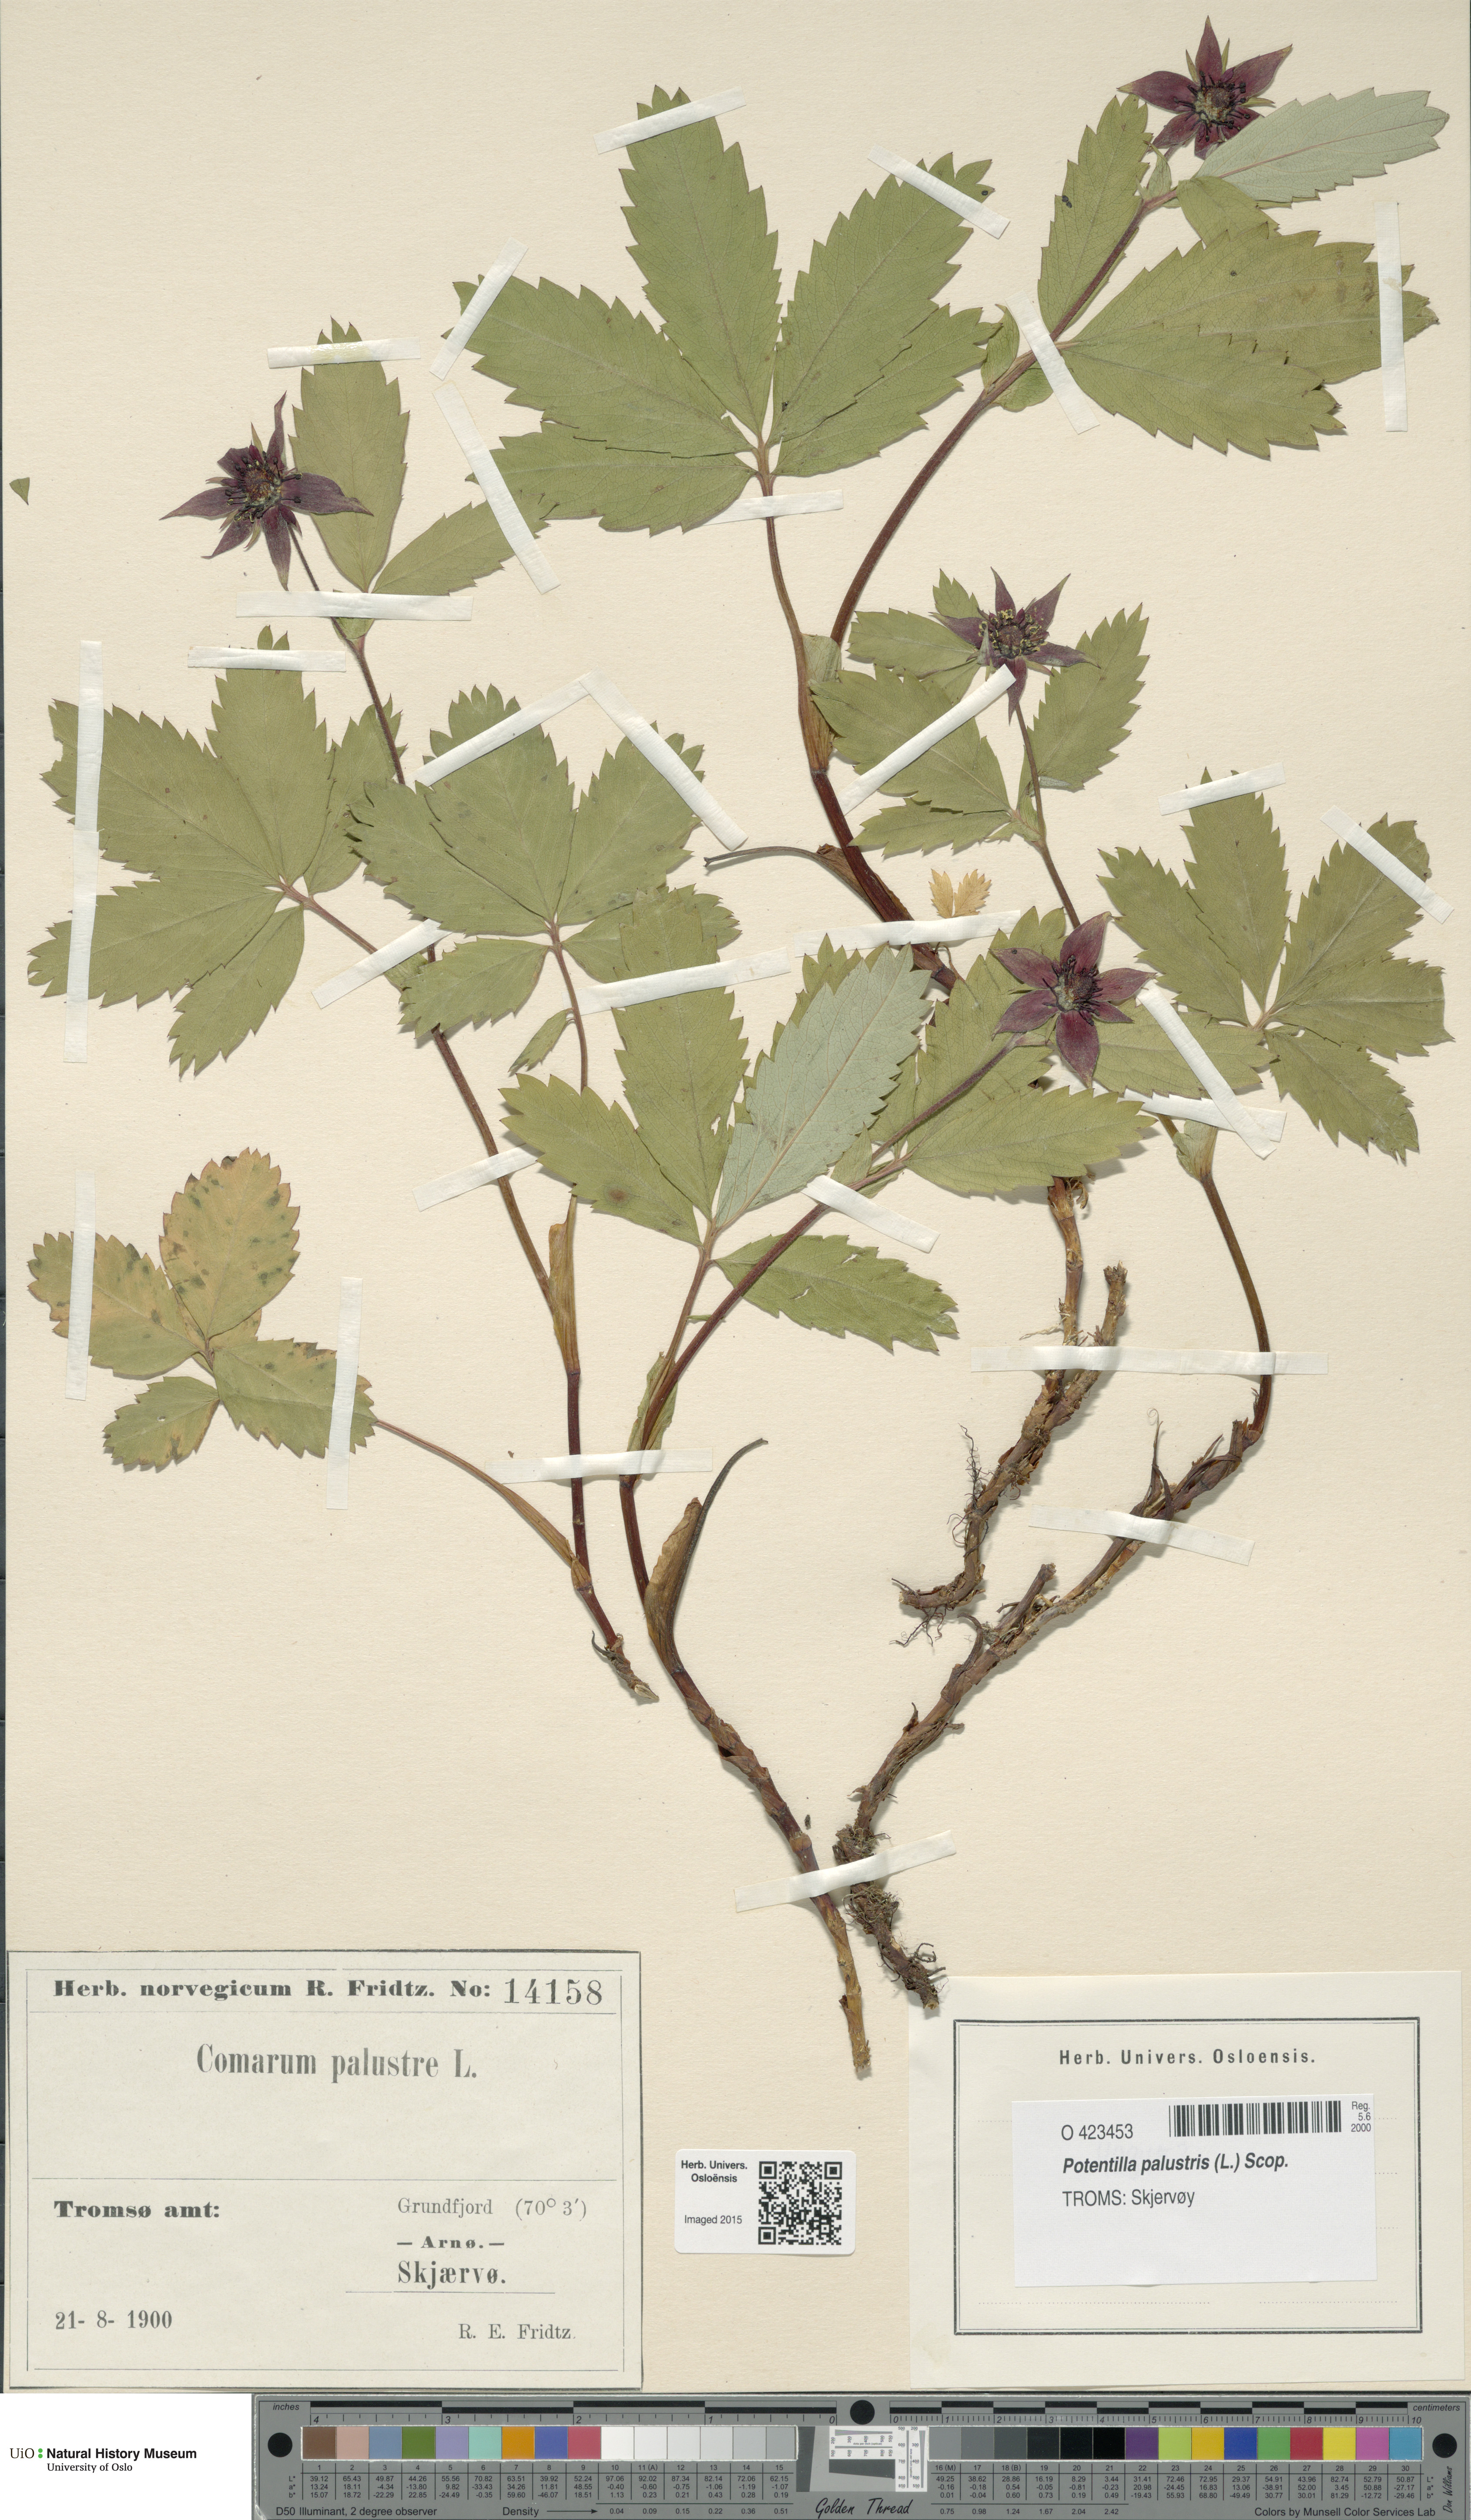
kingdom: Plantae
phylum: Tracheophyta
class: Magnoliopsida
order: Rosales
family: Rosaceae
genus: Comarum
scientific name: Comarum palustre
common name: Marsh cinquefoil
